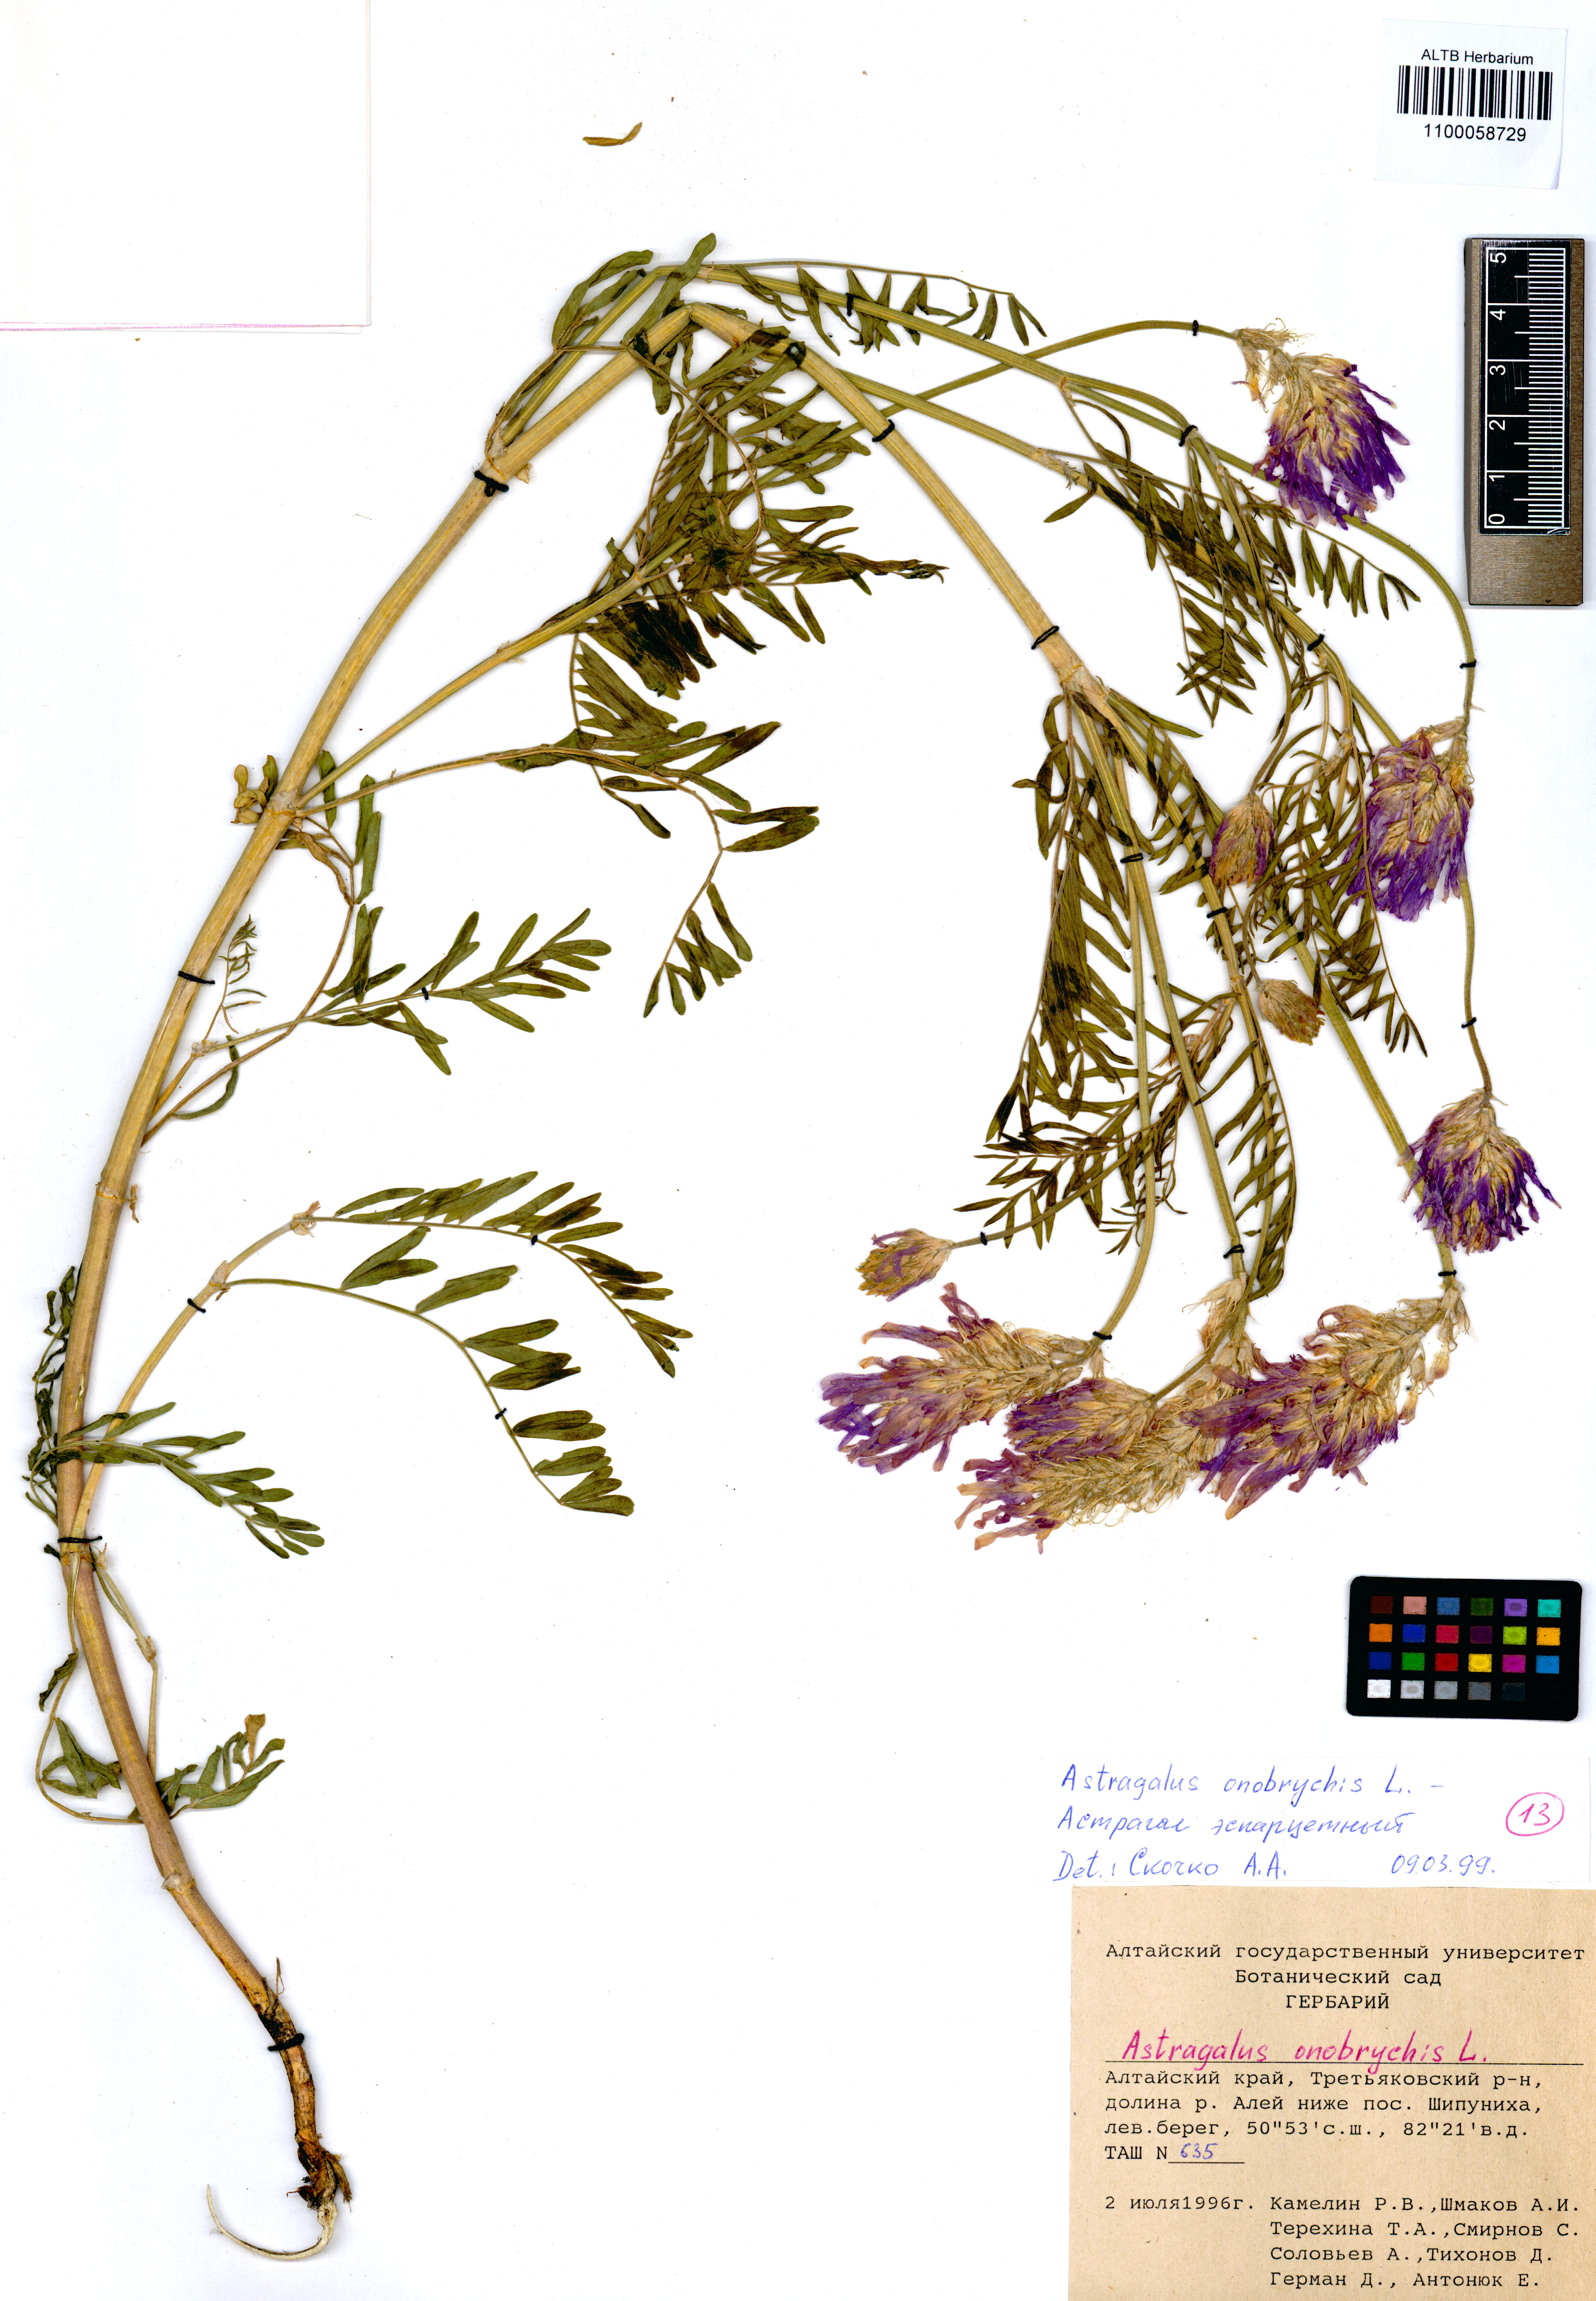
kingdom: Plantae
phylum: Tracheophyta
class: Magnoliopsida
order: Fabales
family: Fabaceae
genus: Astragalus
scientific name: Astragalus onobrychis
